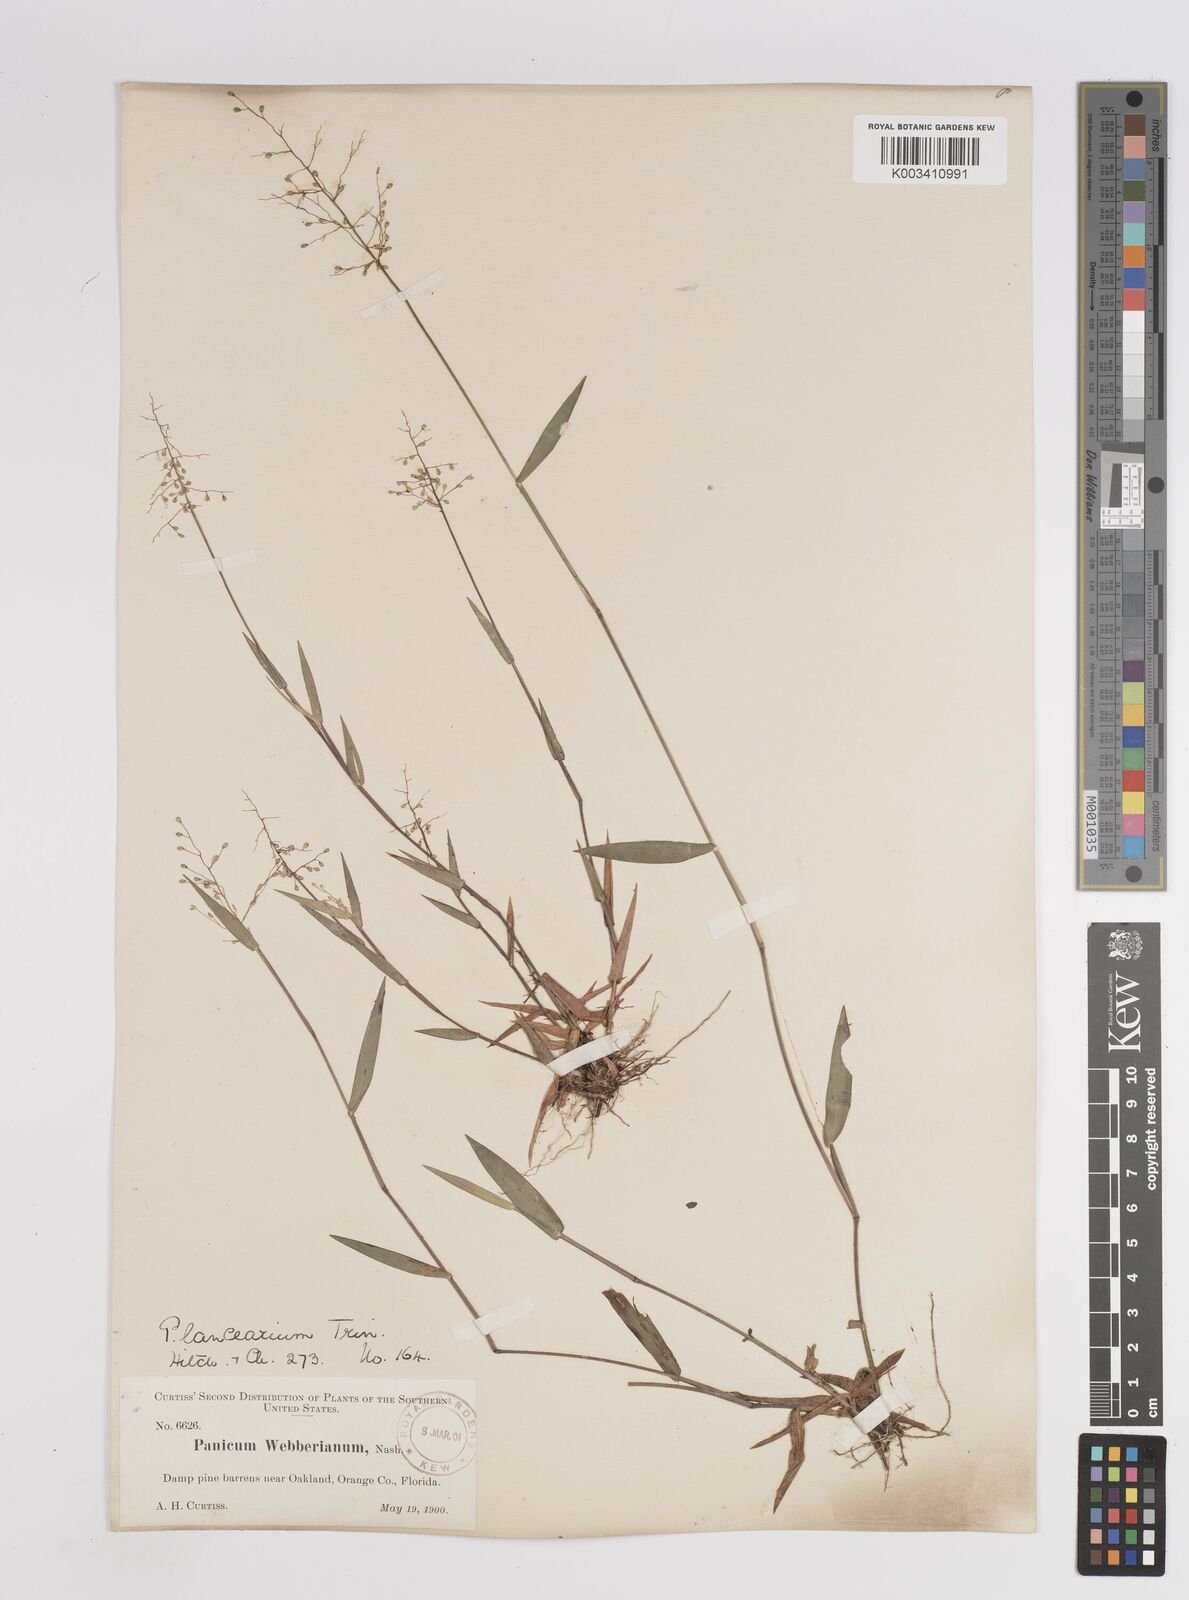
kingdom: Plantae
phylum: Tracheophyta
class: Liliopsida
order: Poales
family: Poaceae
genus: Dichanthelium
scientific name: Dichanthelium portoricense
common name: American panicgrass
